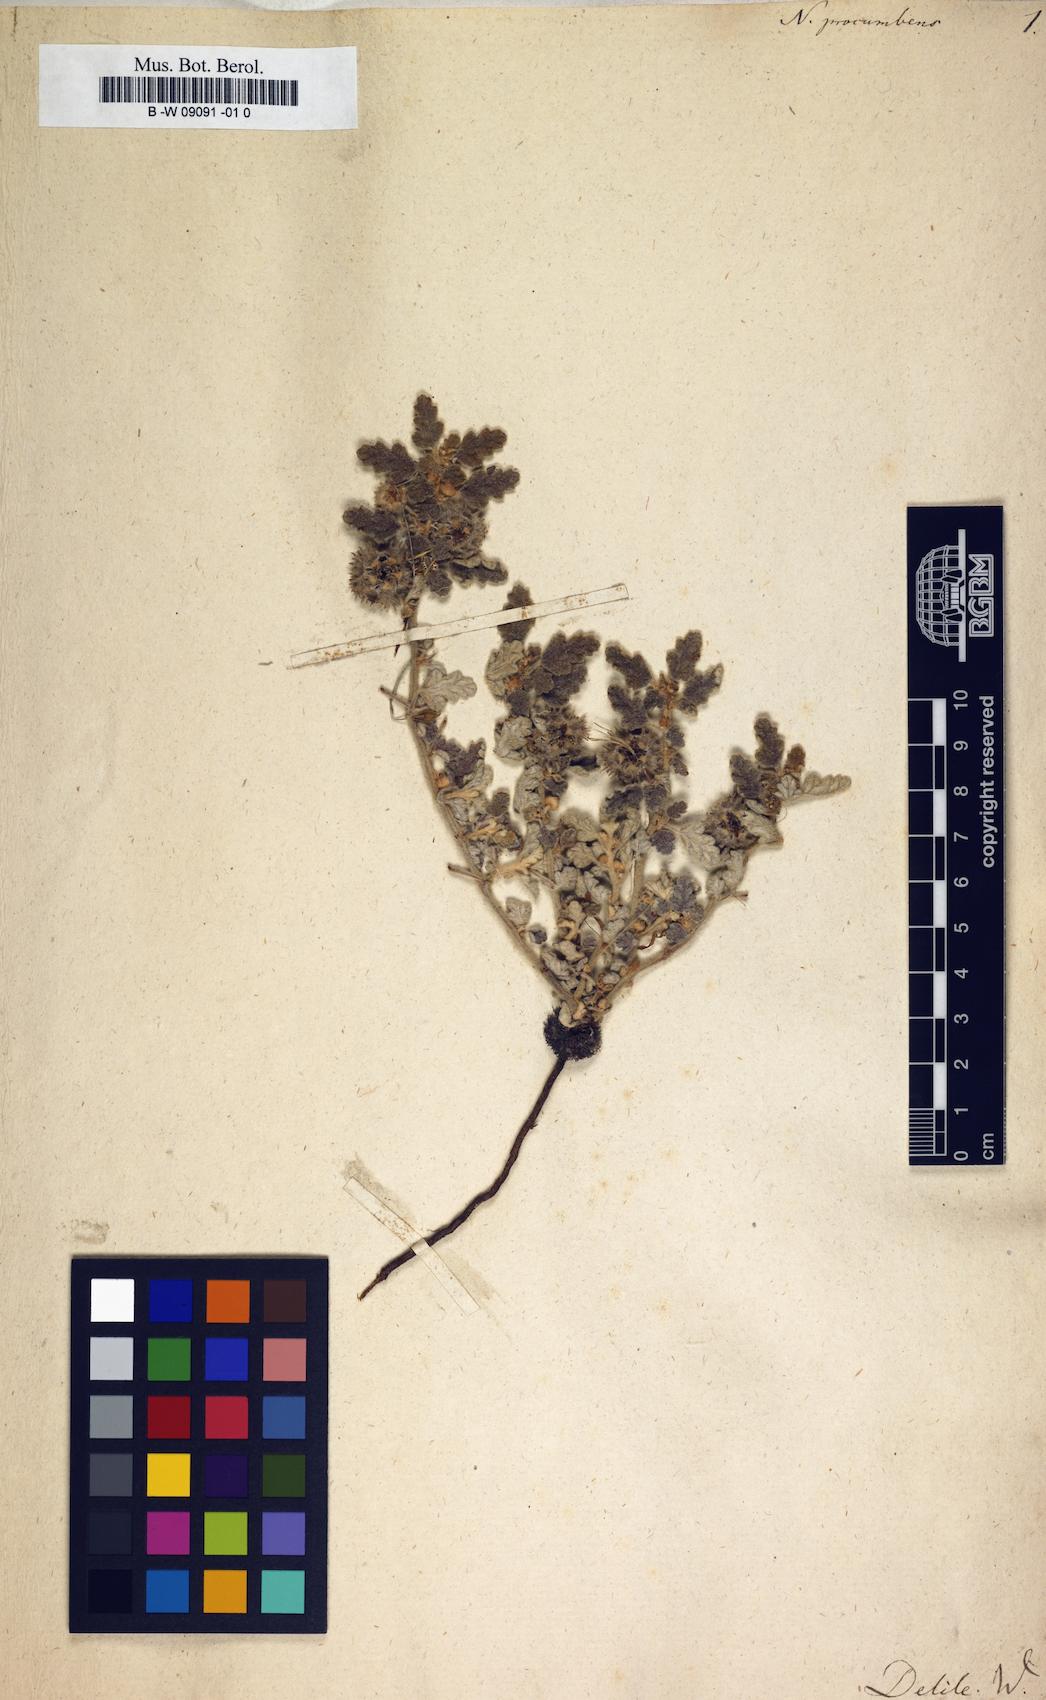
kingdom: Plantae
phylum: Tracheophyta
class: Magnoliopsida
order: Malvales
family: Neuradaceae
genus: Neurada
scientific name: Neurada procumbens
